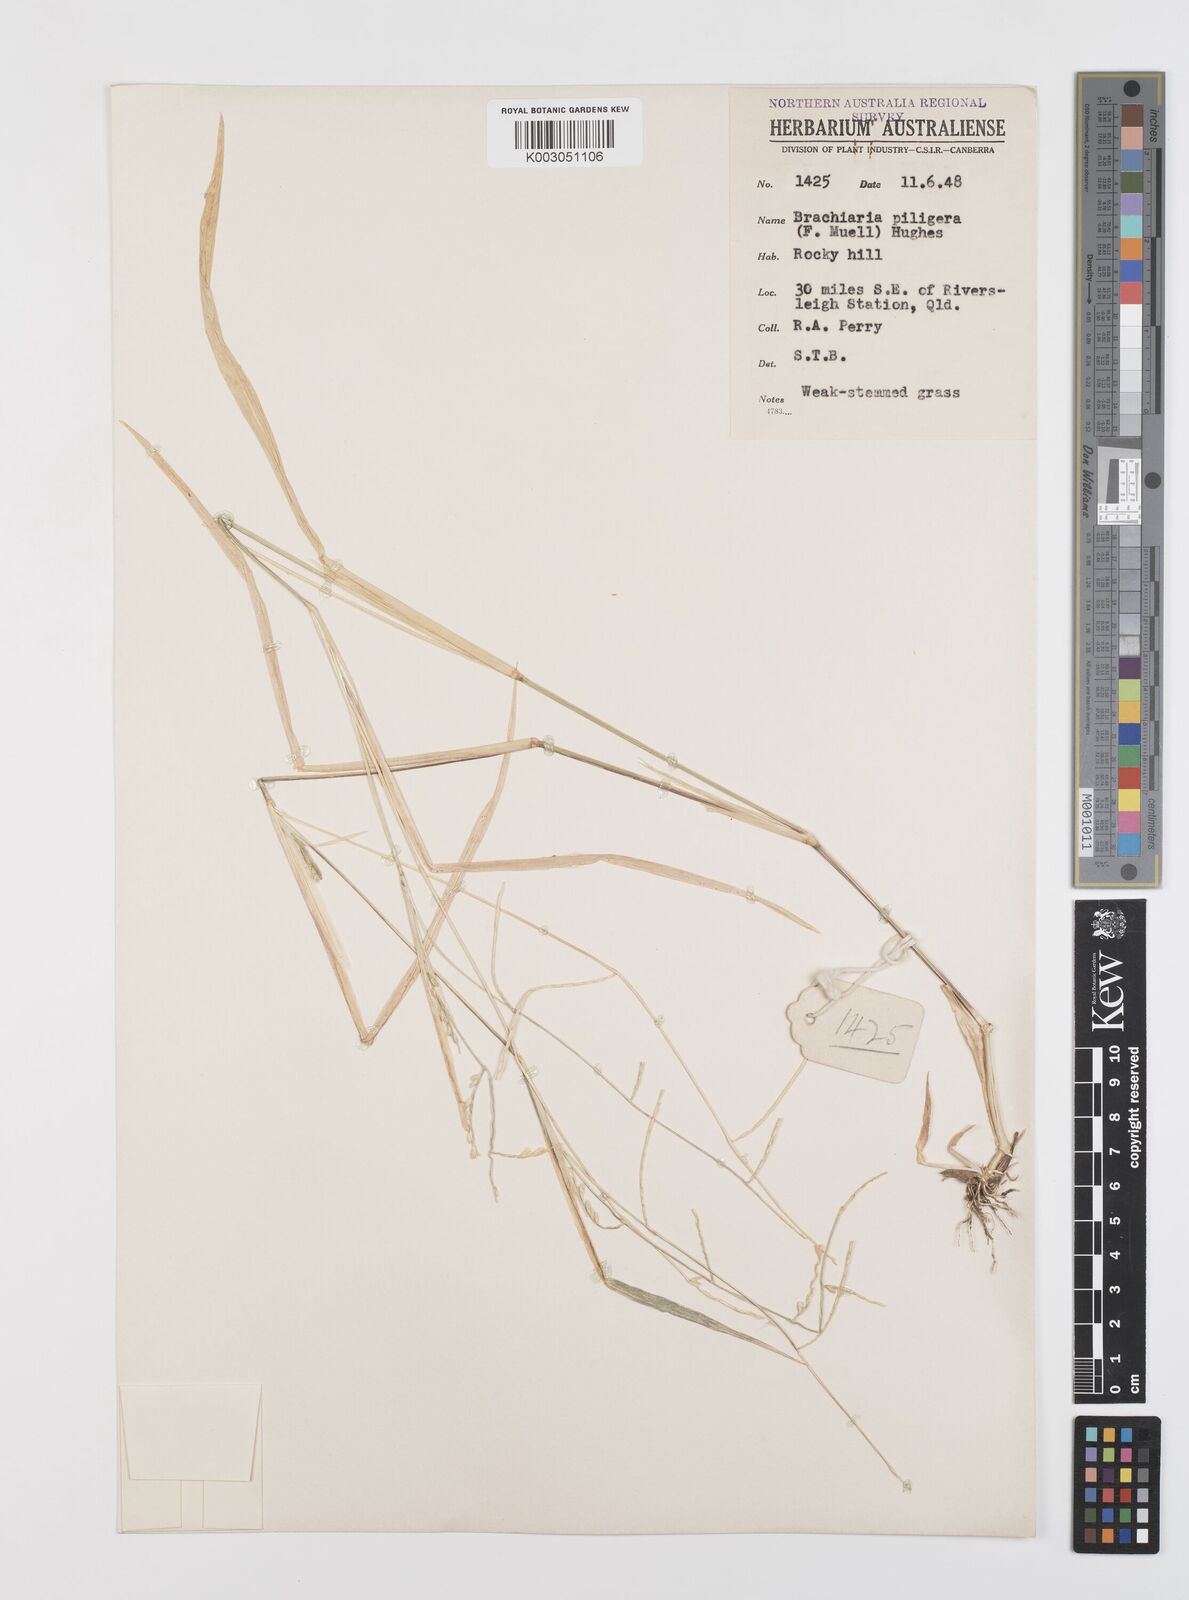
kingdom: Plantae
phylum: Tracheophyta
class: Liliopsida
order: Poales
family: Poaceae
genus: Urochloa
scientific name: Urochloa piligera
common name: Wattle signalgrass
